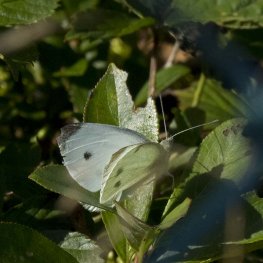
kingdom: Animalia
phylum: Arthropoda
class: Insecta
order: Lepidoptera
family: Pieridae
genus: Pieris
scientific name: Pieris rapae
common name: Cabbage White
